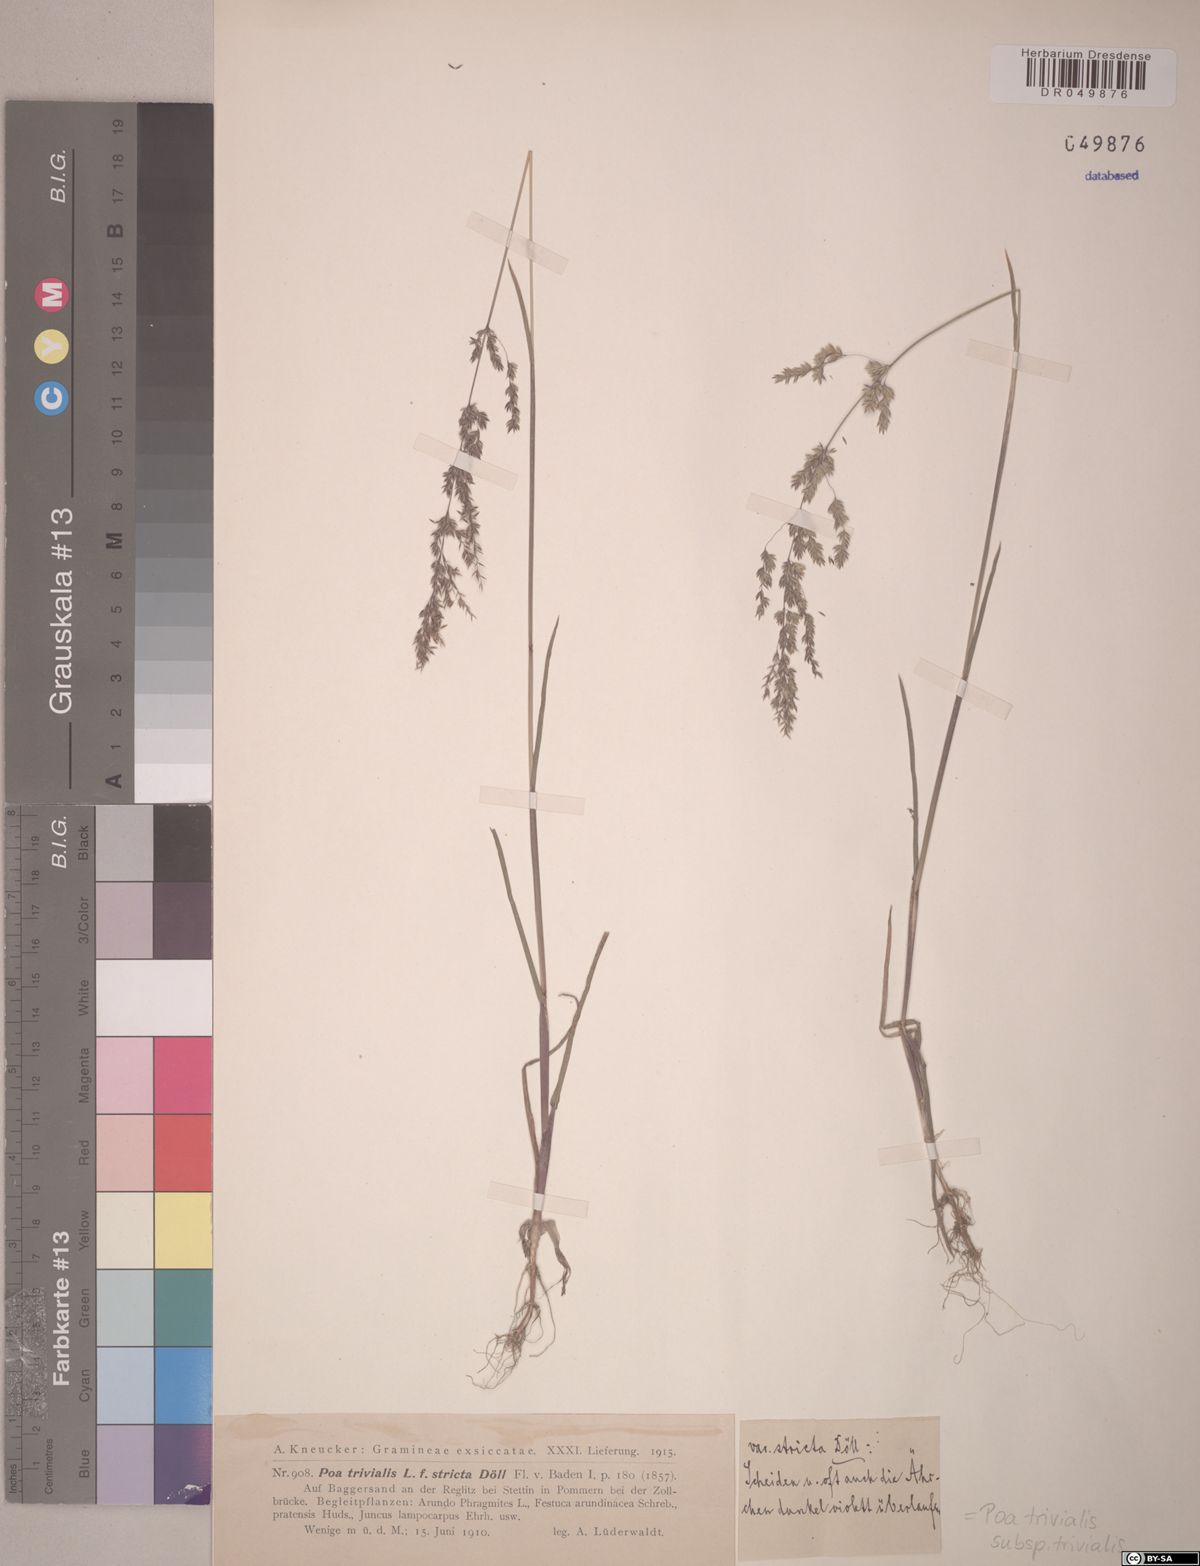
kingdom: Plantae
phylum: Tracheophyta
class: Liliopsida
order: Poales
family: Poaceae
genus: Poa
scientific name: Poa trivialis
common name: Rough bluegrass
